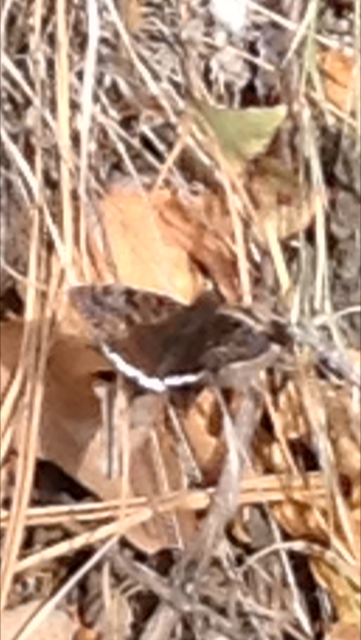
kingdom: Animalia
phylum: Arthropoda
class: Insecta
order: Lepidoptera
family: Hesperiidae
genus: Erynnis
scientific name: Erynnis tristis
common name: Mournful Duskywing
